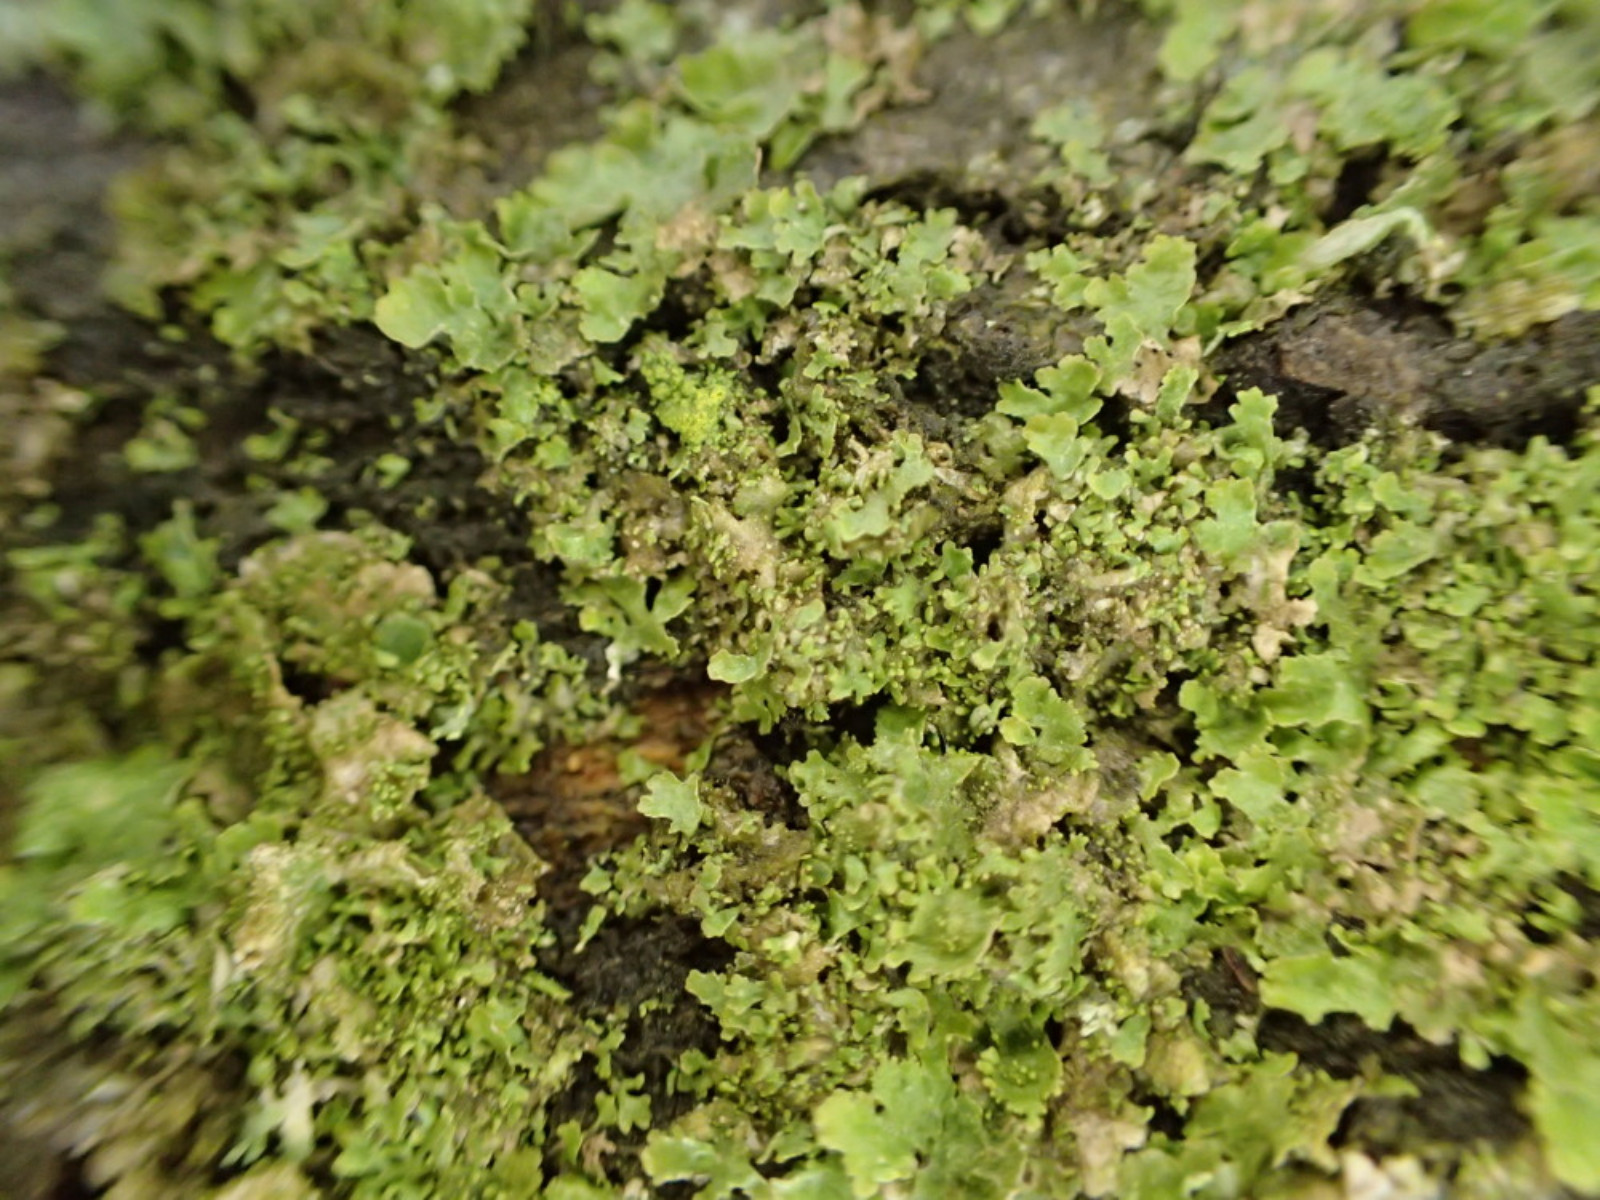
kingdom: Fungi
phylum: Ascomycota
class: Lecanoromycetes
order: Lecanorales
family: Parmeliaceae
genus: Melanohalea
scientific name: Melanohalea exasperatula
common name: kølle-skållav
